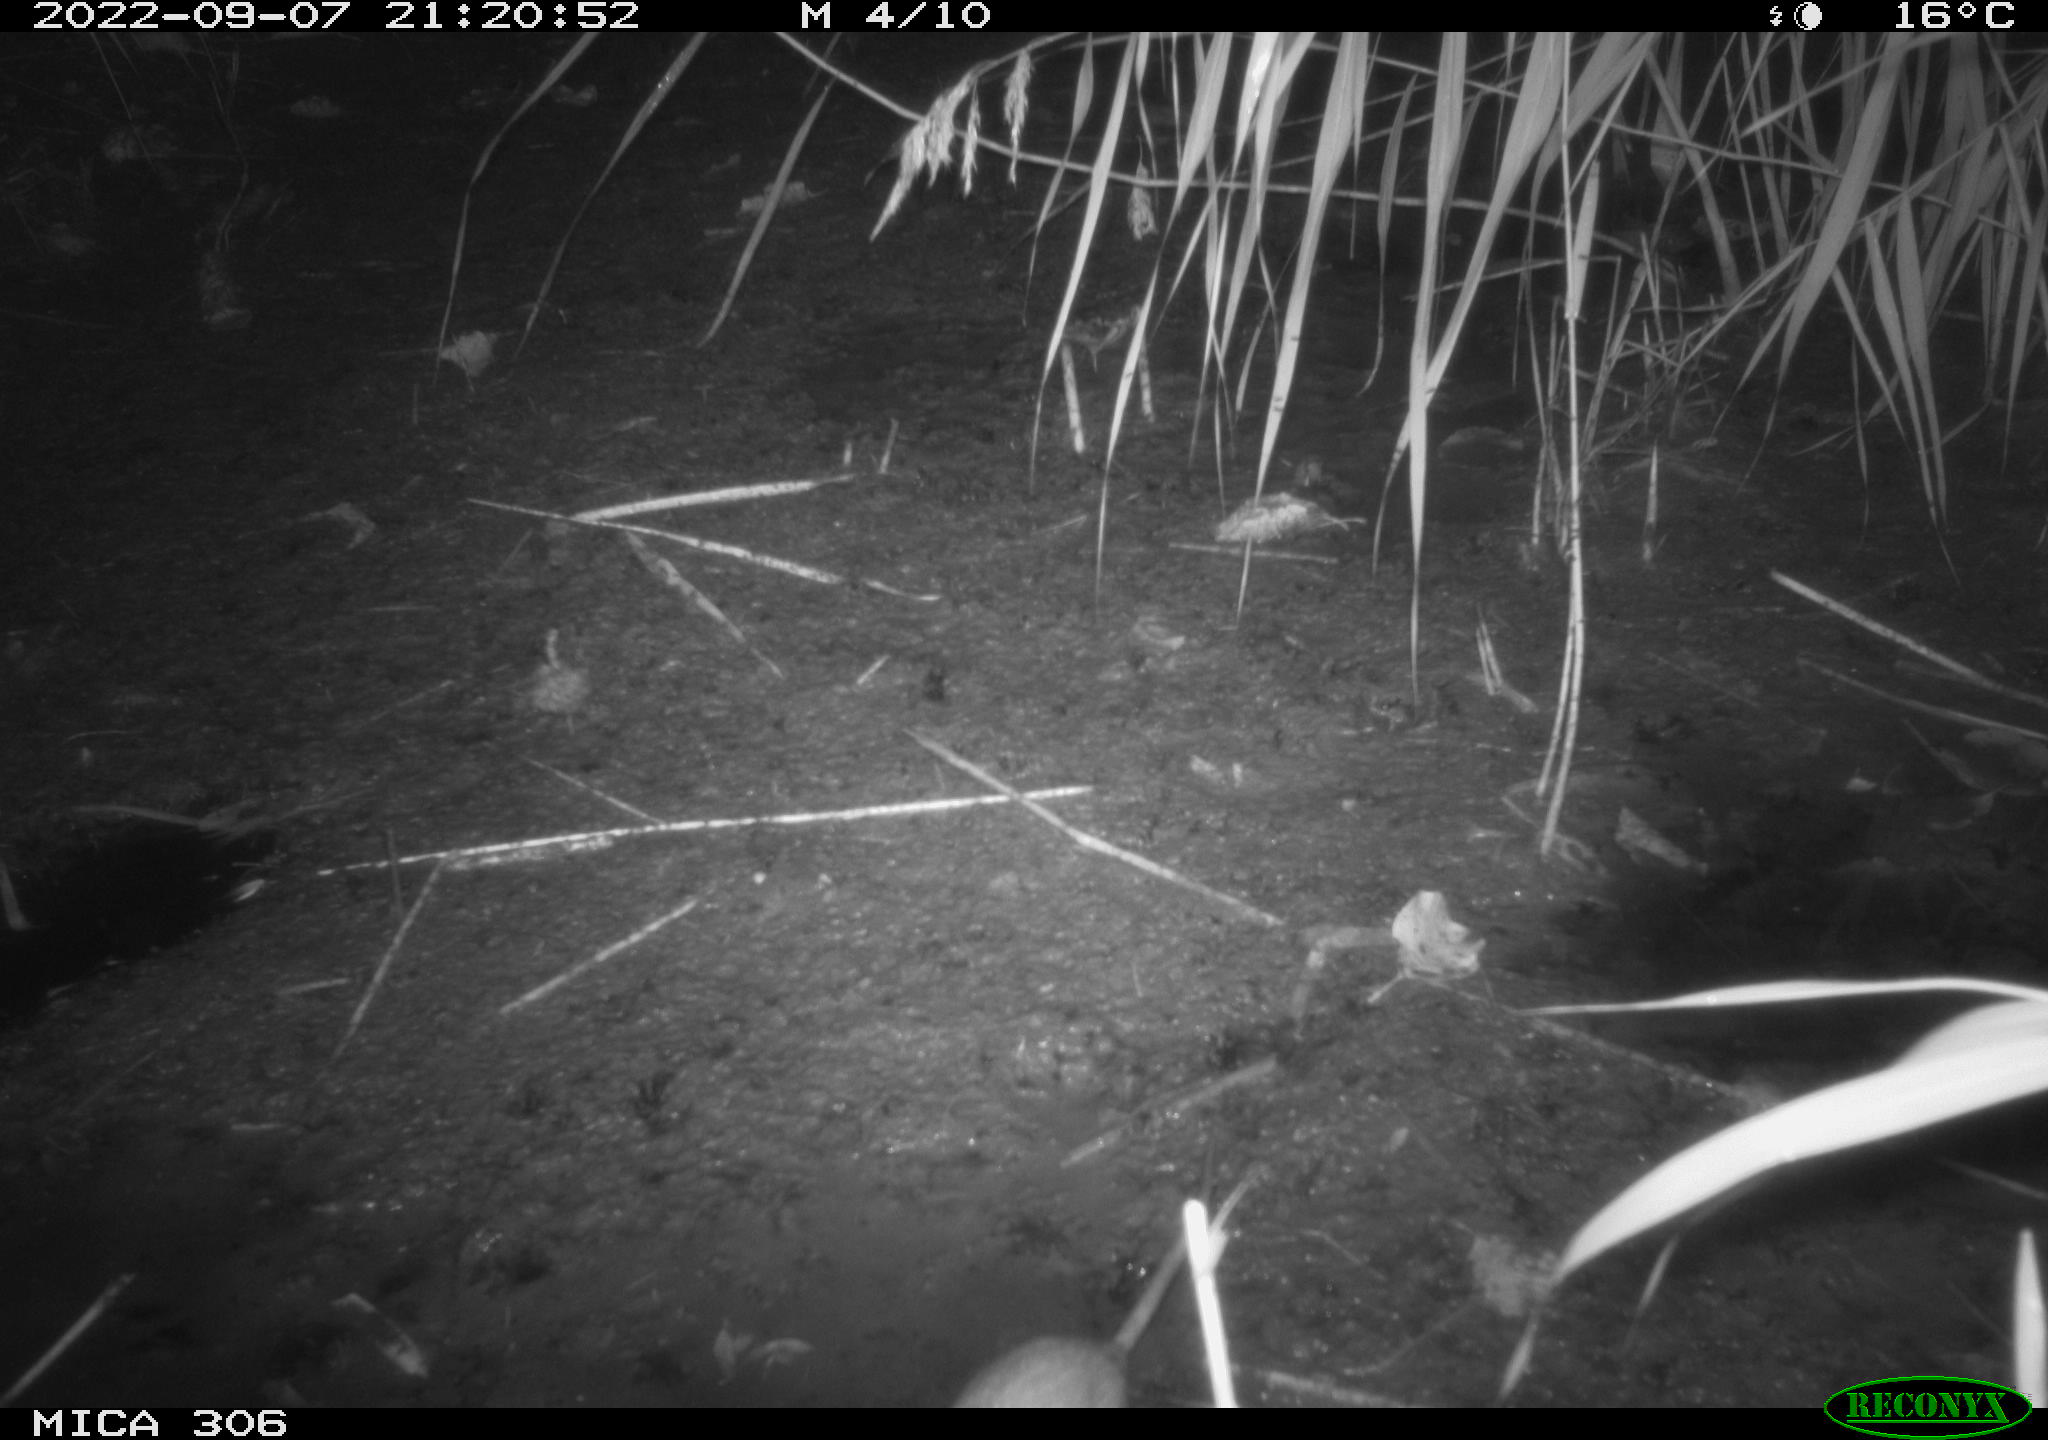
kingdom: Animalia
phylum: Chordata
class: Mammalia
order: Rodentia
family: Muridae
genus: Rattus
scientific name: Rattus norvegicus
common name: Brown rat
